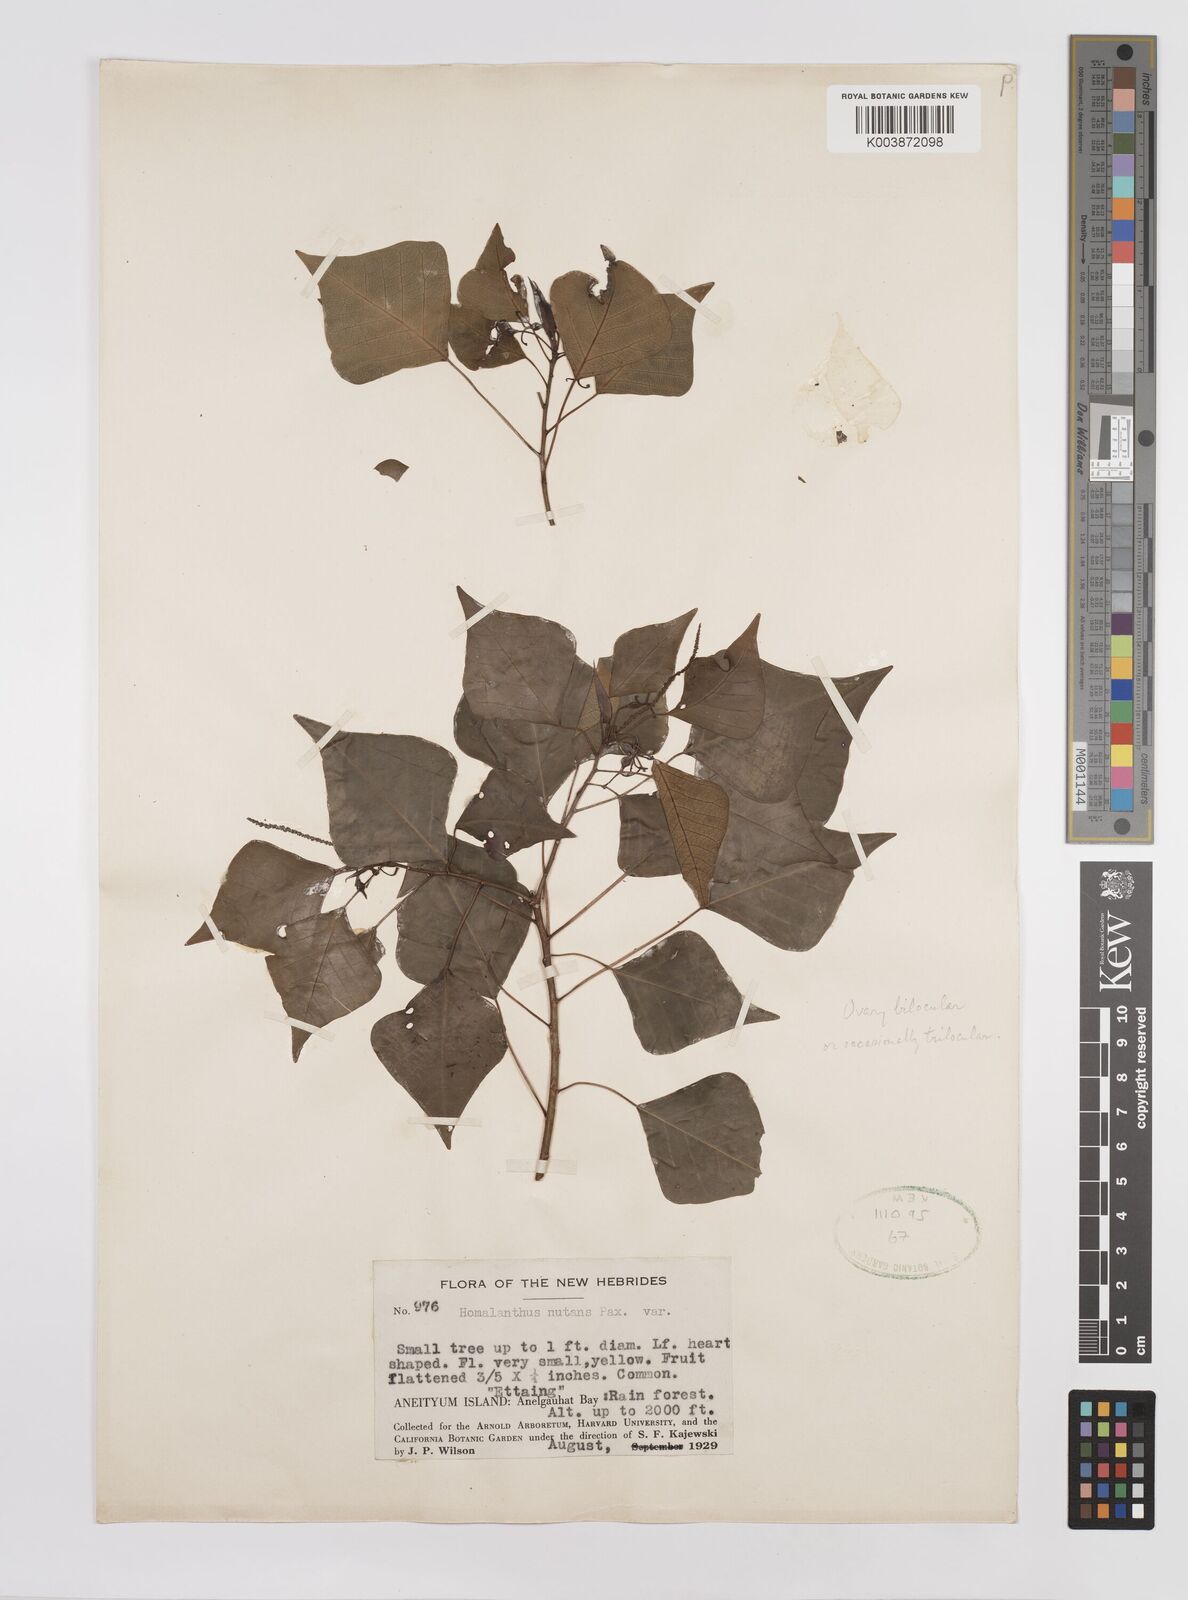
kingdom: Plantae
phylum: Tracheophyta
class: Magnoliopsida
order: Malpighiales
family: Euphorbiaceae
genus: Homalanthus
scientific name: Homalanthus nutans
